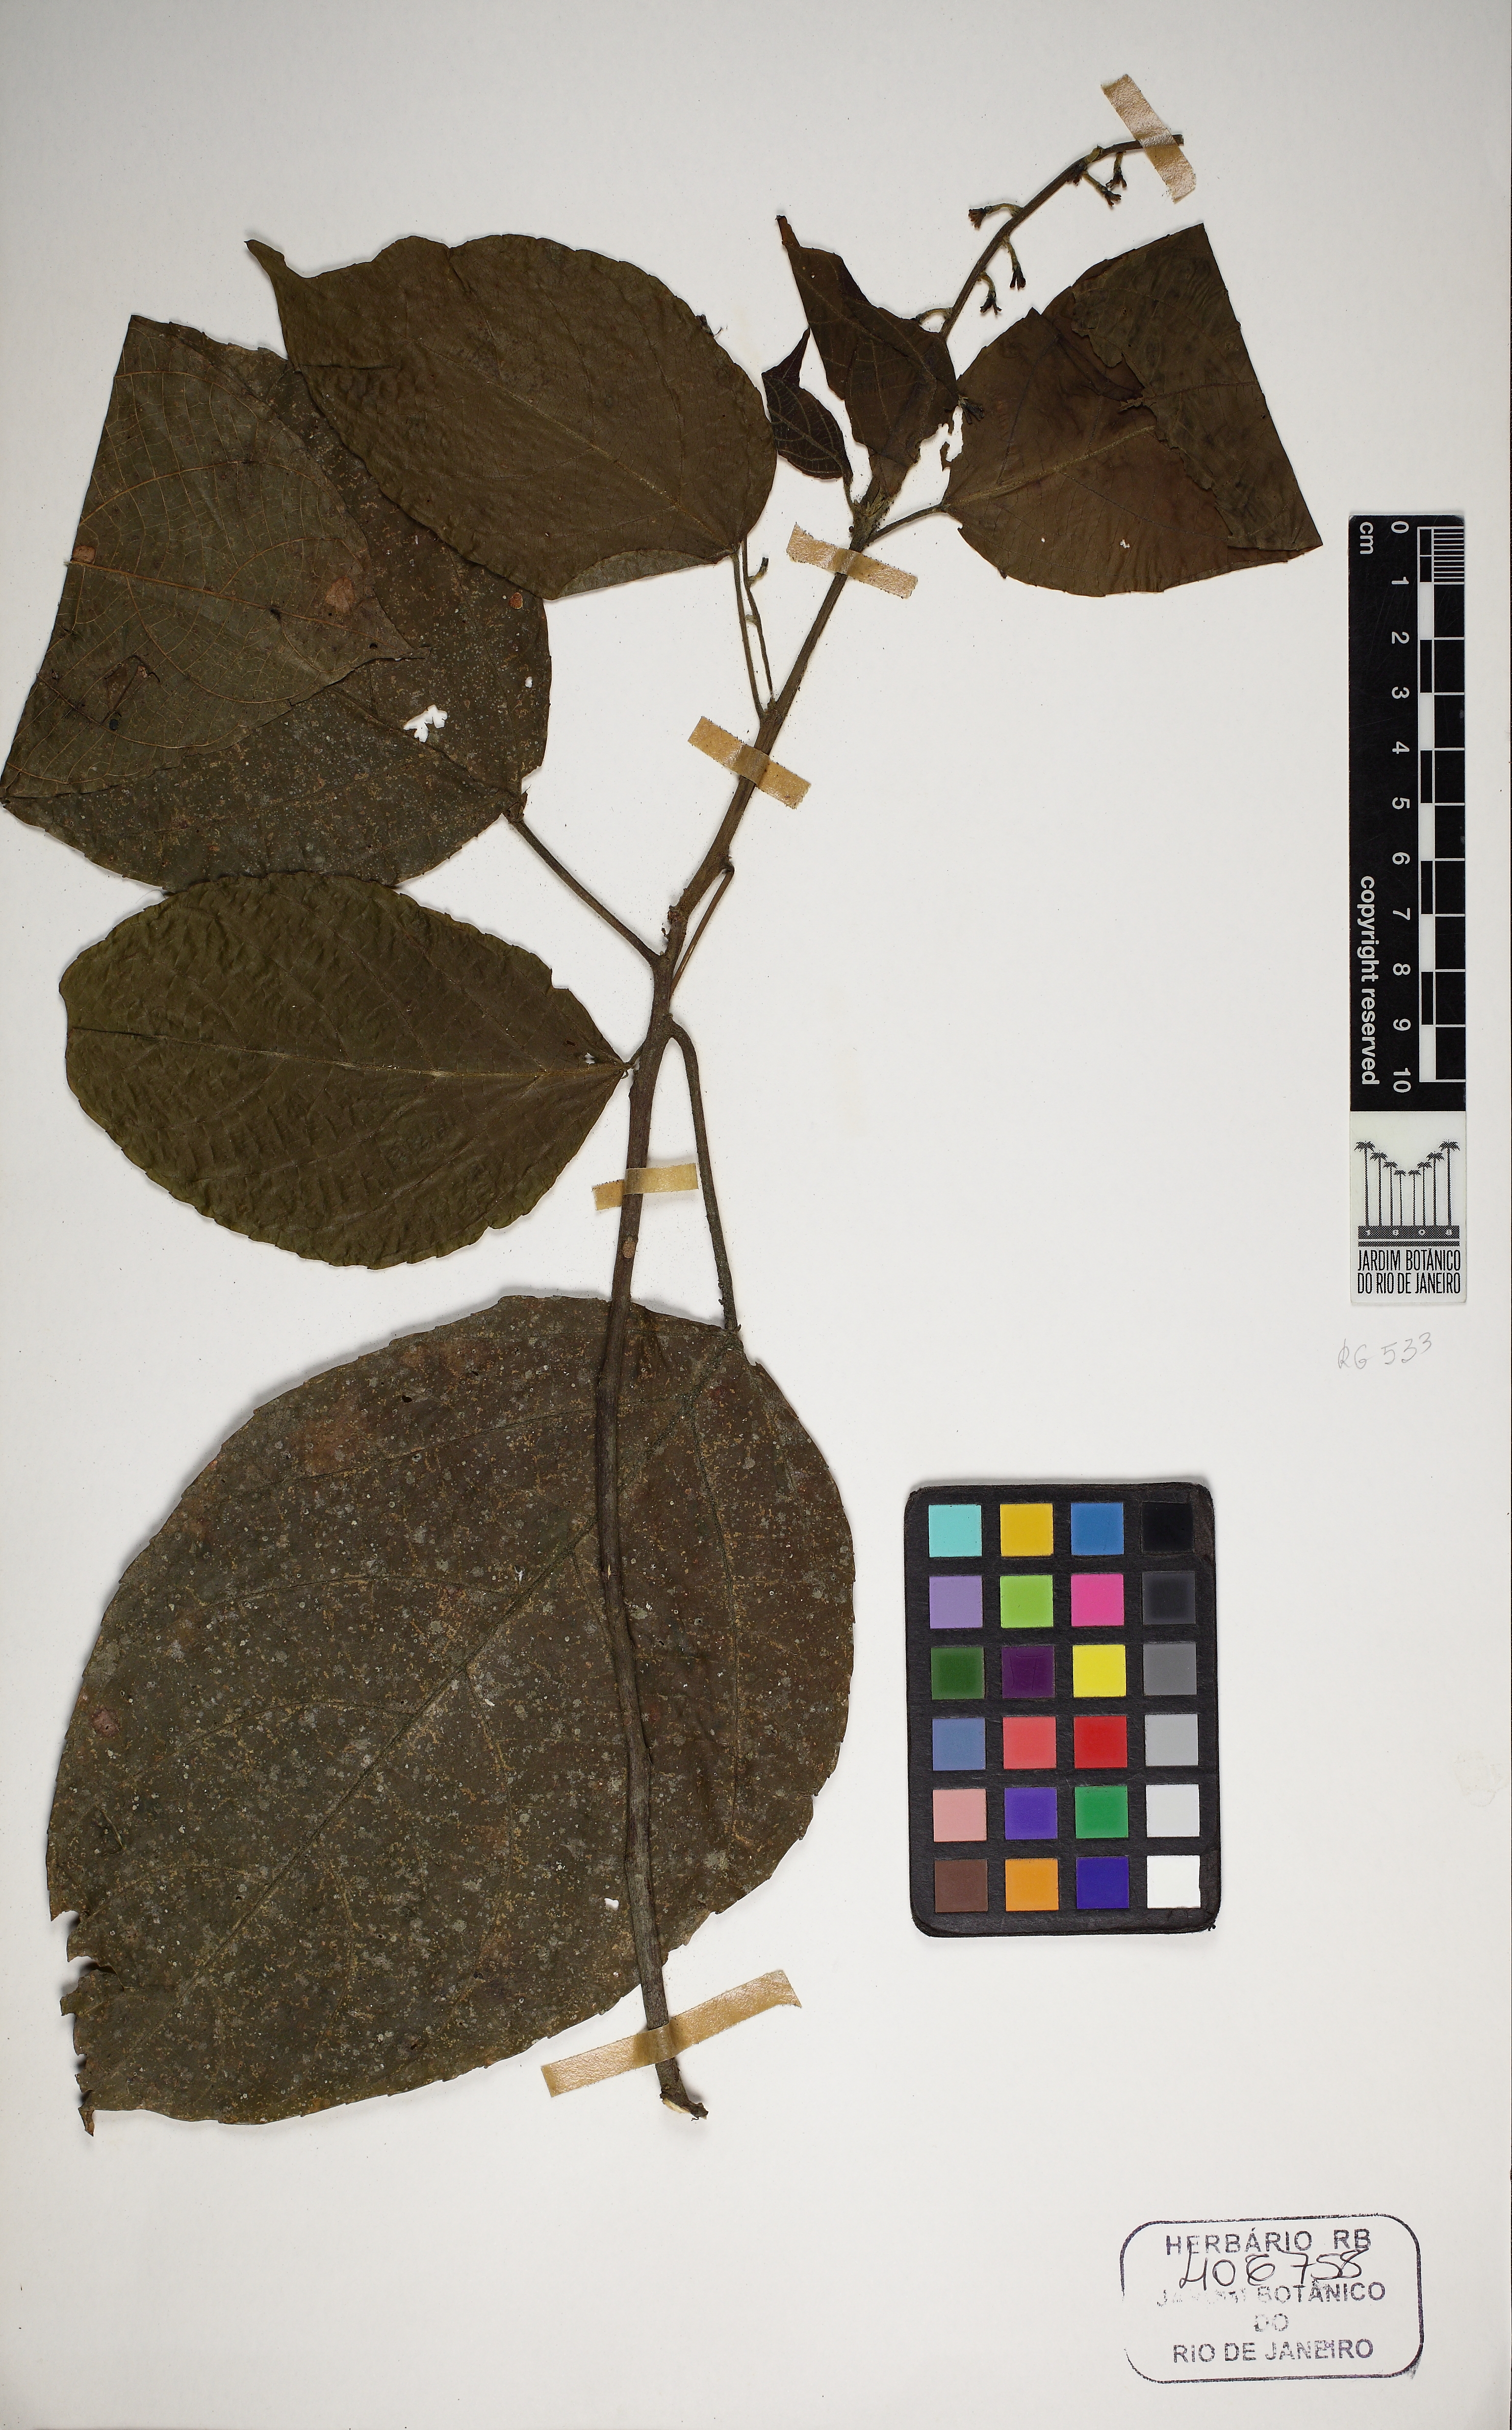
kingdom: Plantae
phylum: Tracheophyta
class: Magnoliopsida
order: Malpighiales
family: Euphorbiaceae
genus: Aparisthmium
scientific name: Aparisthmium cordatum
